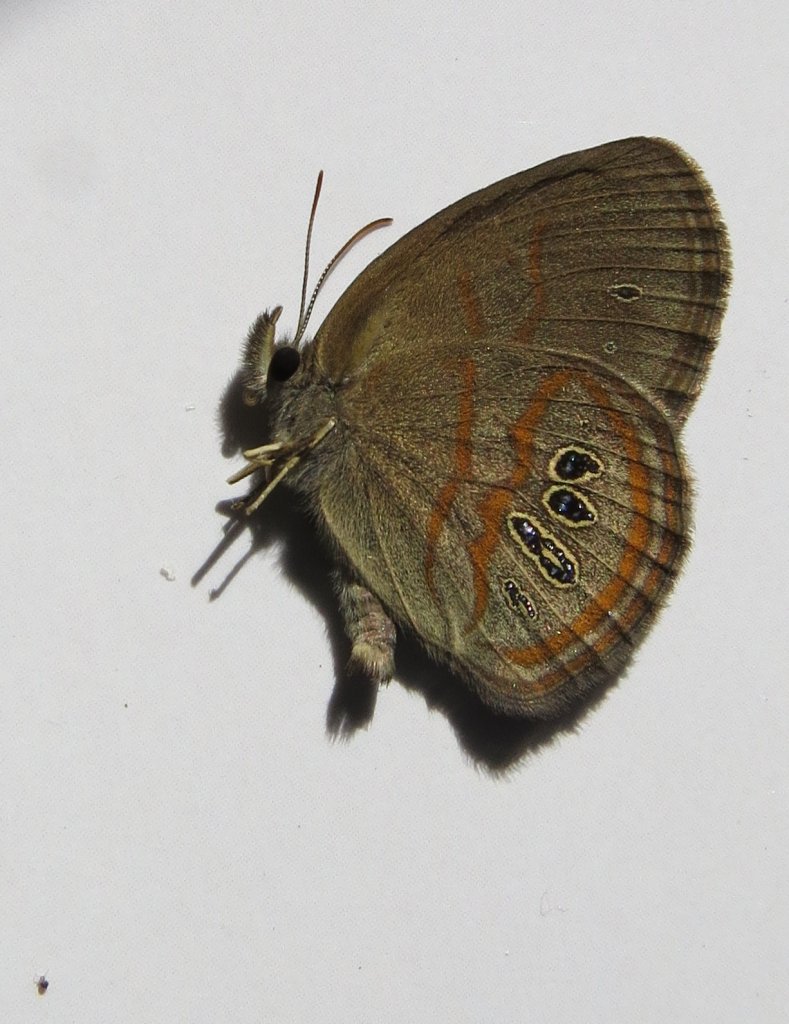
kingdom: Animalia
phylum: Arthropoda
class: Insecta
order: Lepidoptera
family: Nymphalidae
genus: Euptychia
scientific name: Euptychia Neonympha helicta
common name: Helicta Satyr
